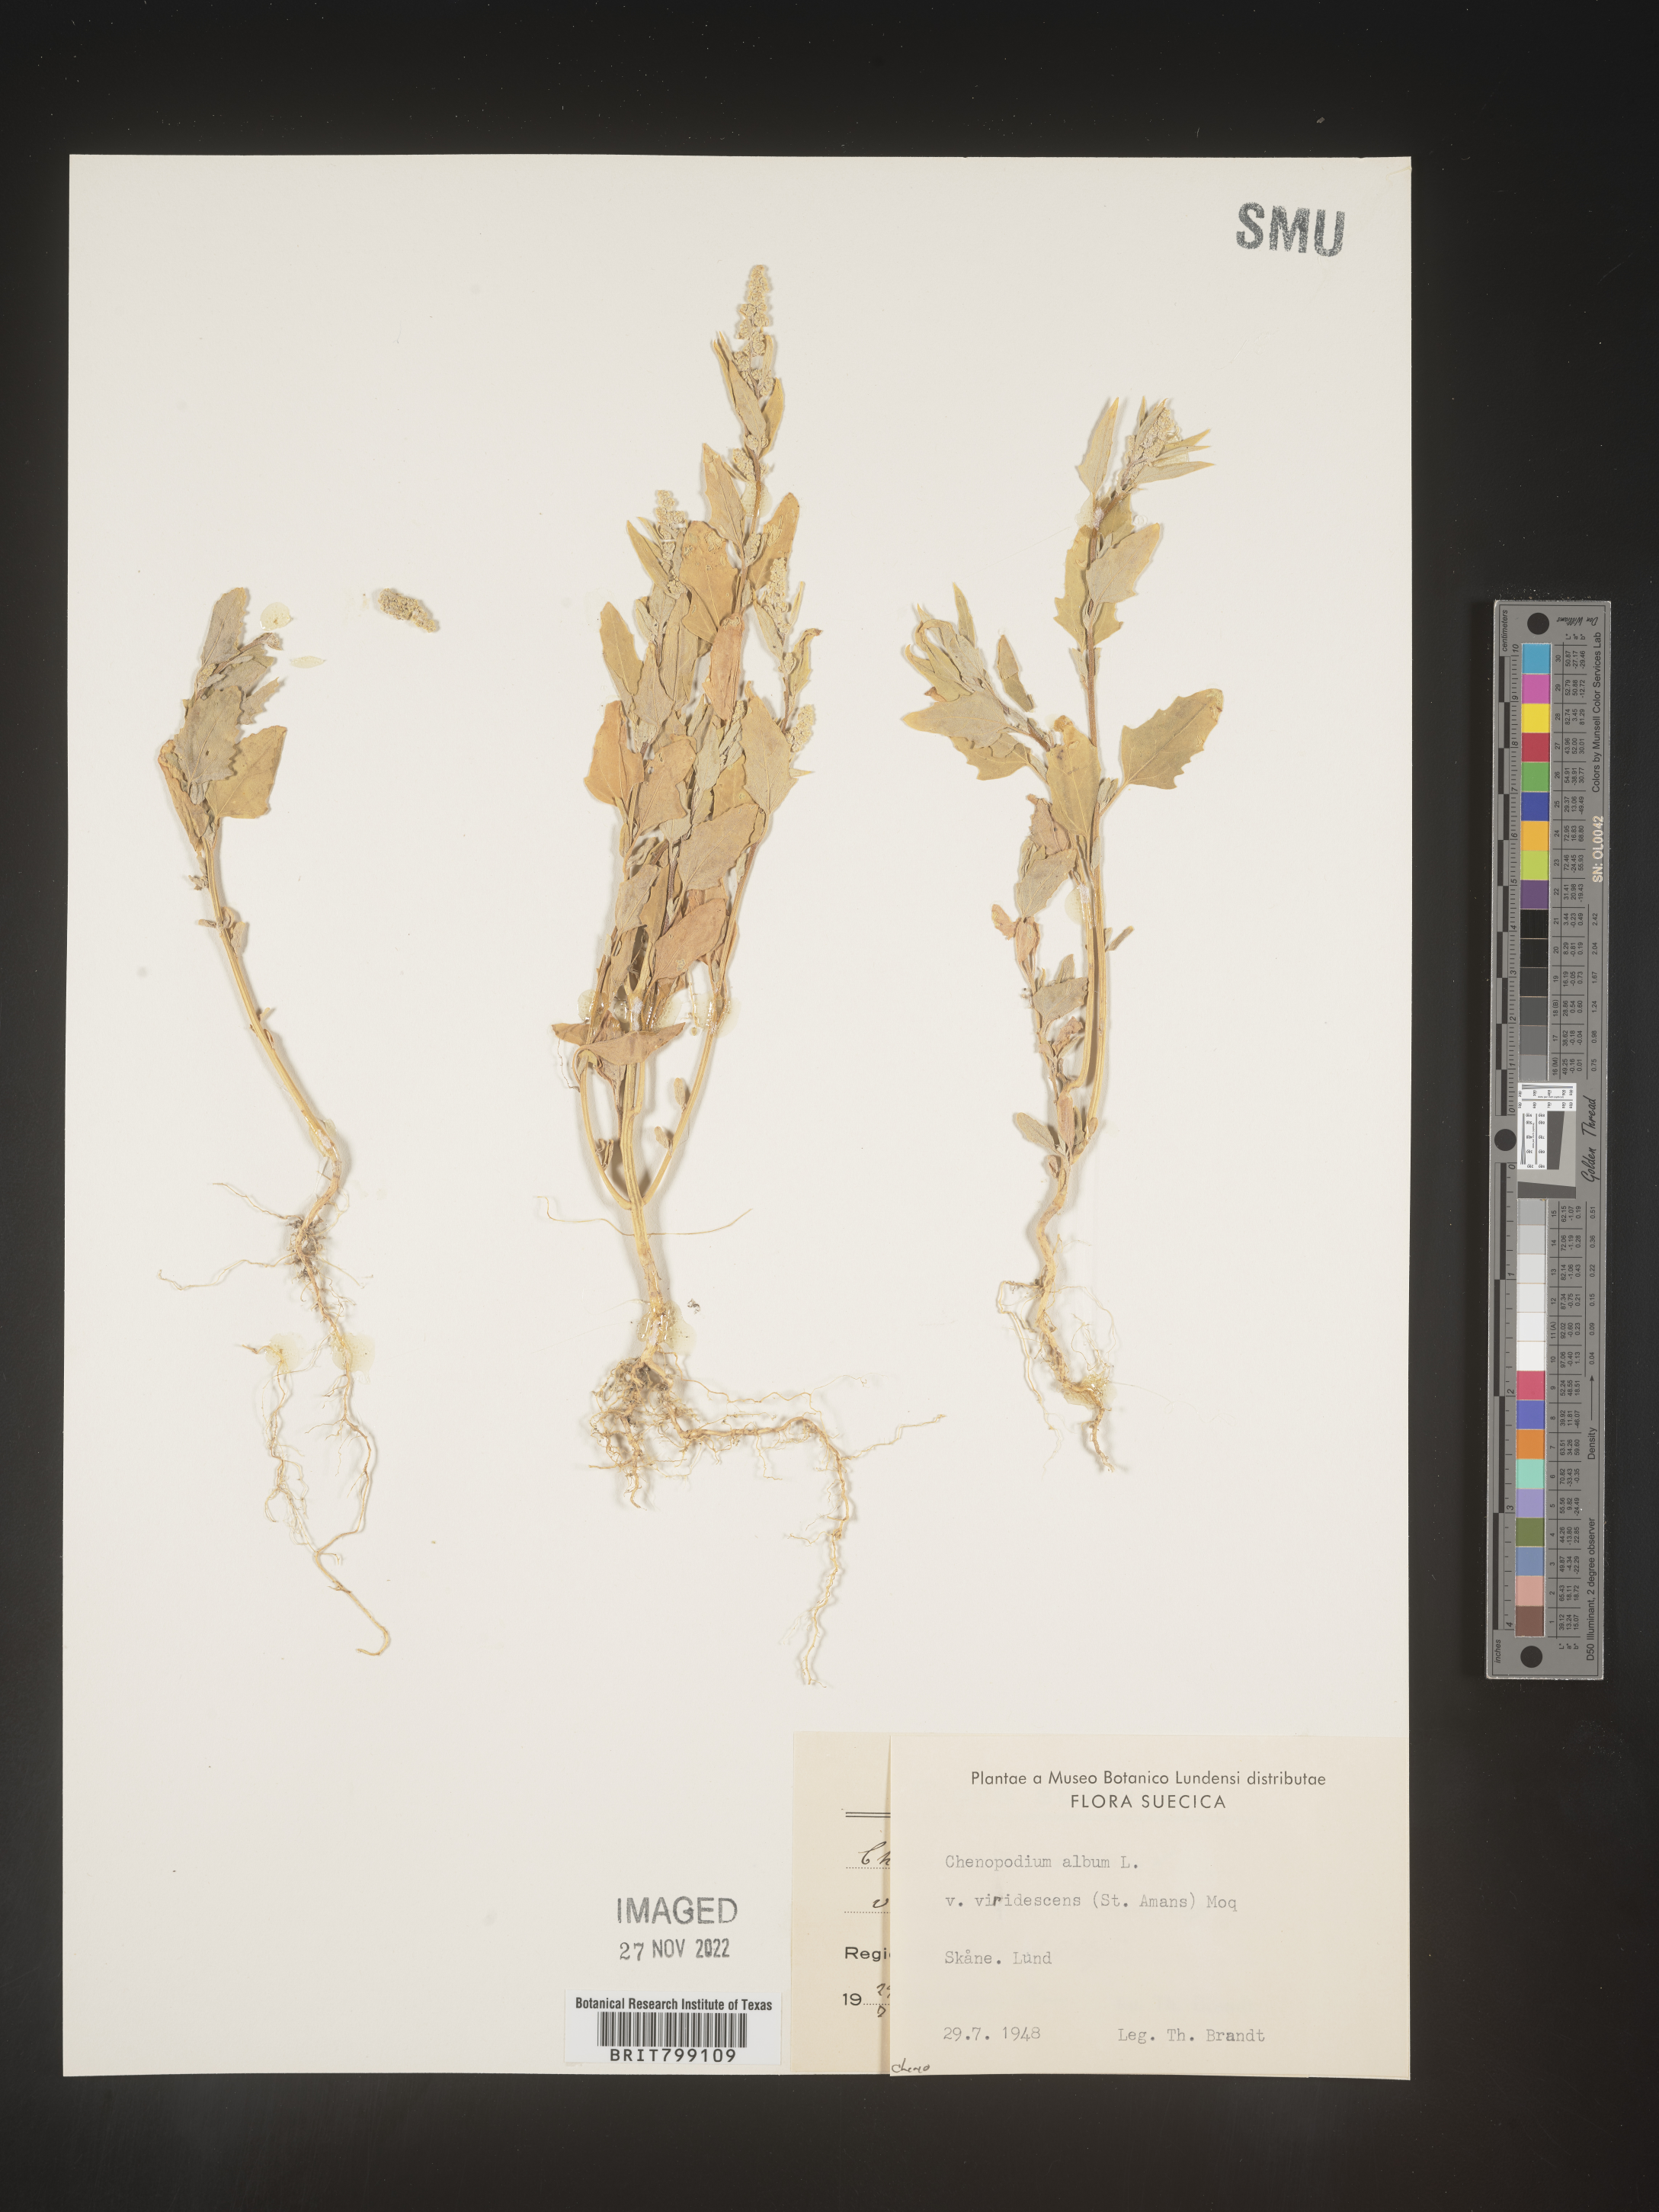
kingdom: Plantae
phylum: Tracheophyta
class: Magnoliopsida
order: Caryophyllales
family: Amaranthaceae
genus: Chenopodium
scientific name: Chenopodium album
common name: Fat-hen
